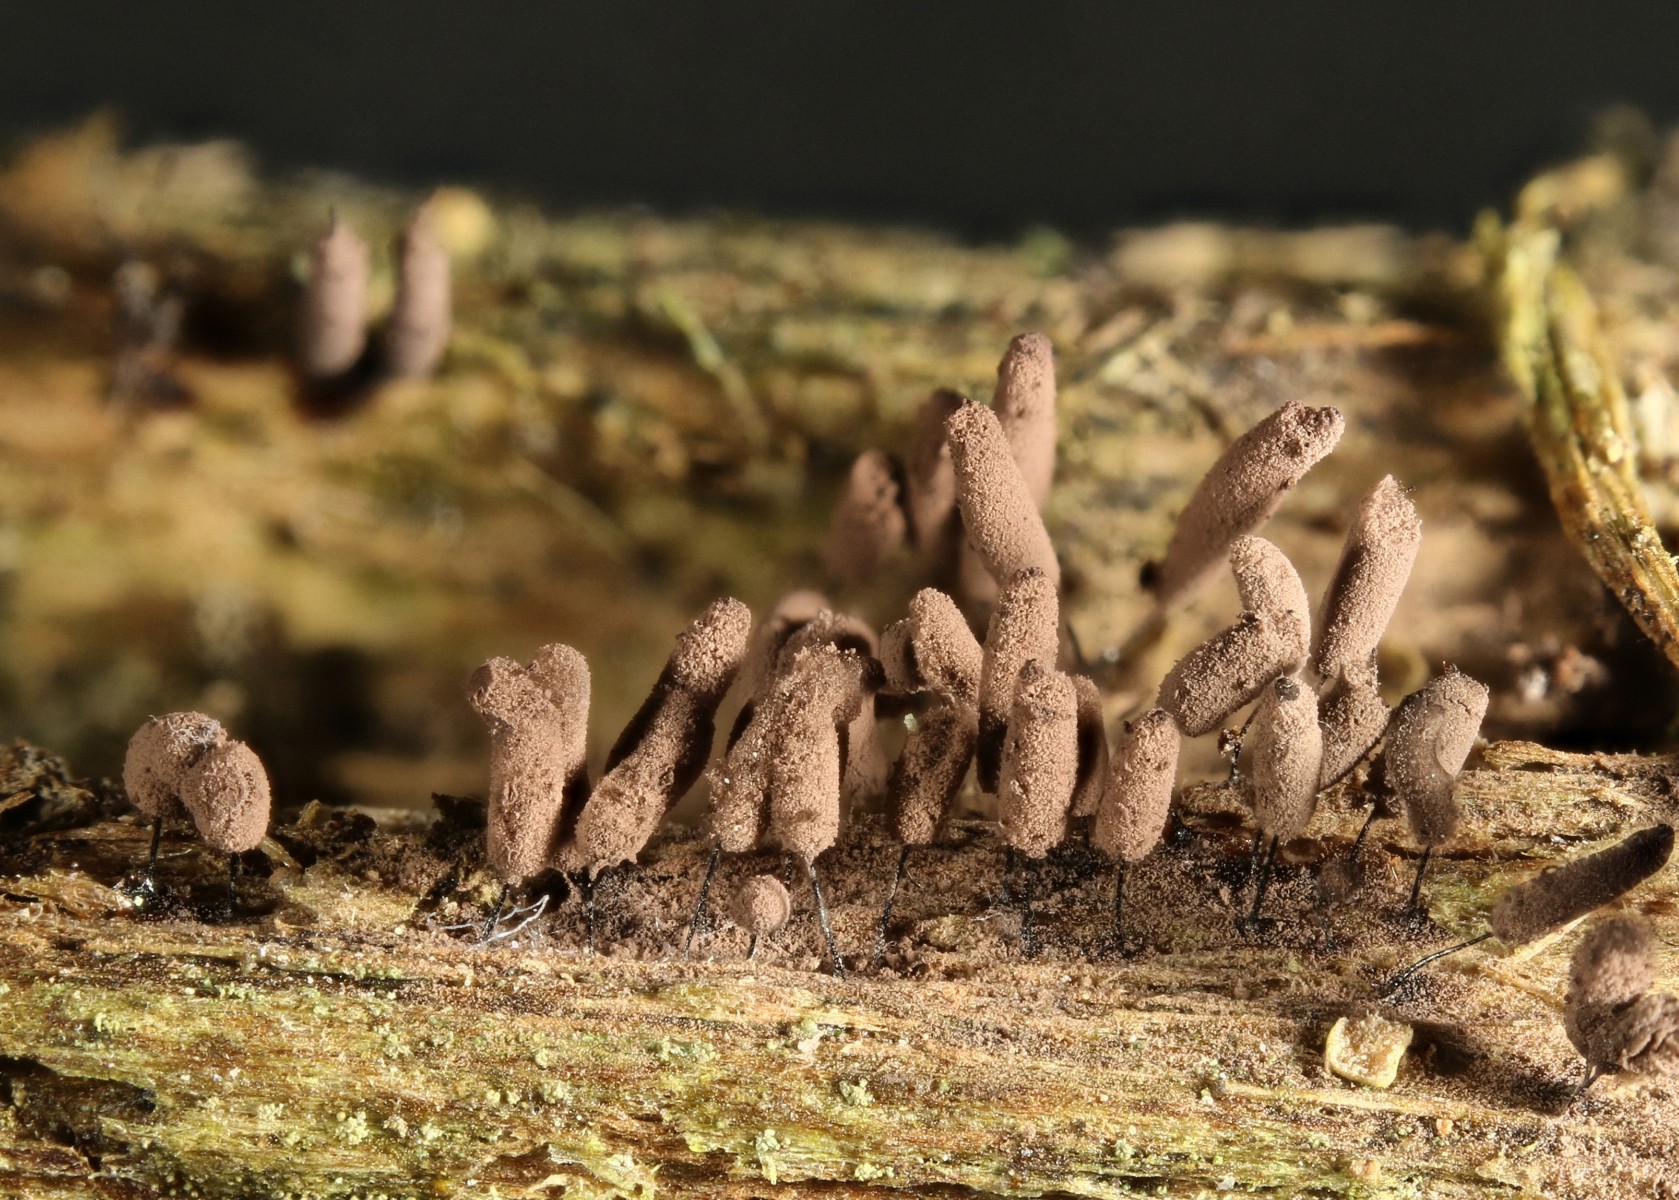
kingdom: Protozoa
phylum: Mycetozoa
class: Myxomycetes
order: Stemonitidales
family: Stemonitidaceae
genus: Stemonitopsis
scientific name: Stemonitopsis hyperopta
